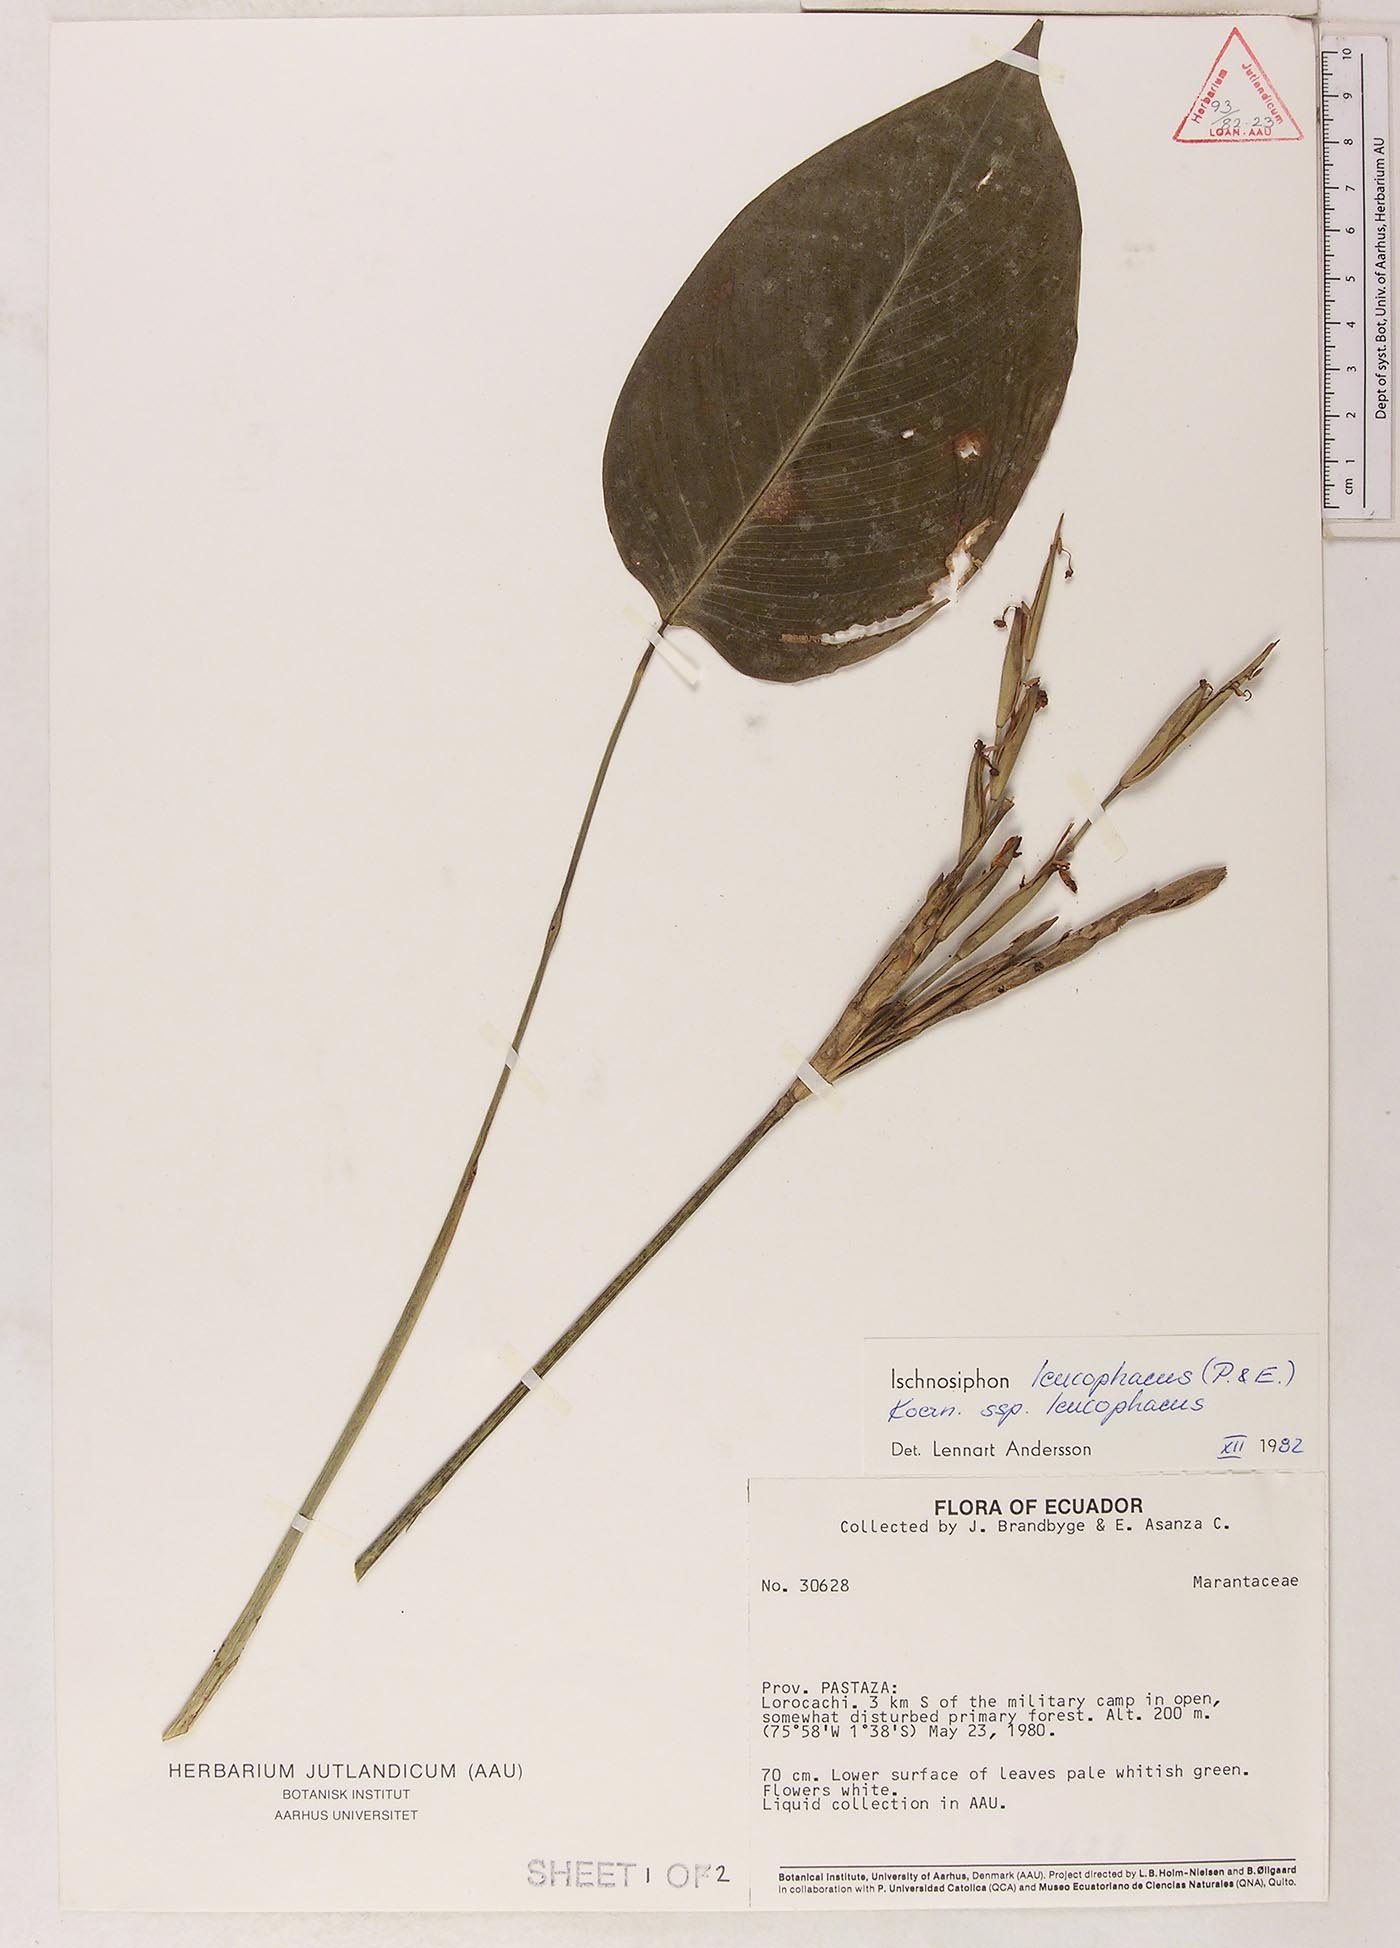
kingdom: Plantae
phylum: Tracheophyta
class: Liliopsida
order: Zingiberales
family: Marantaceae
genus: Ischnosiphon
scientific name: Ischnosiphon leucophaeus
